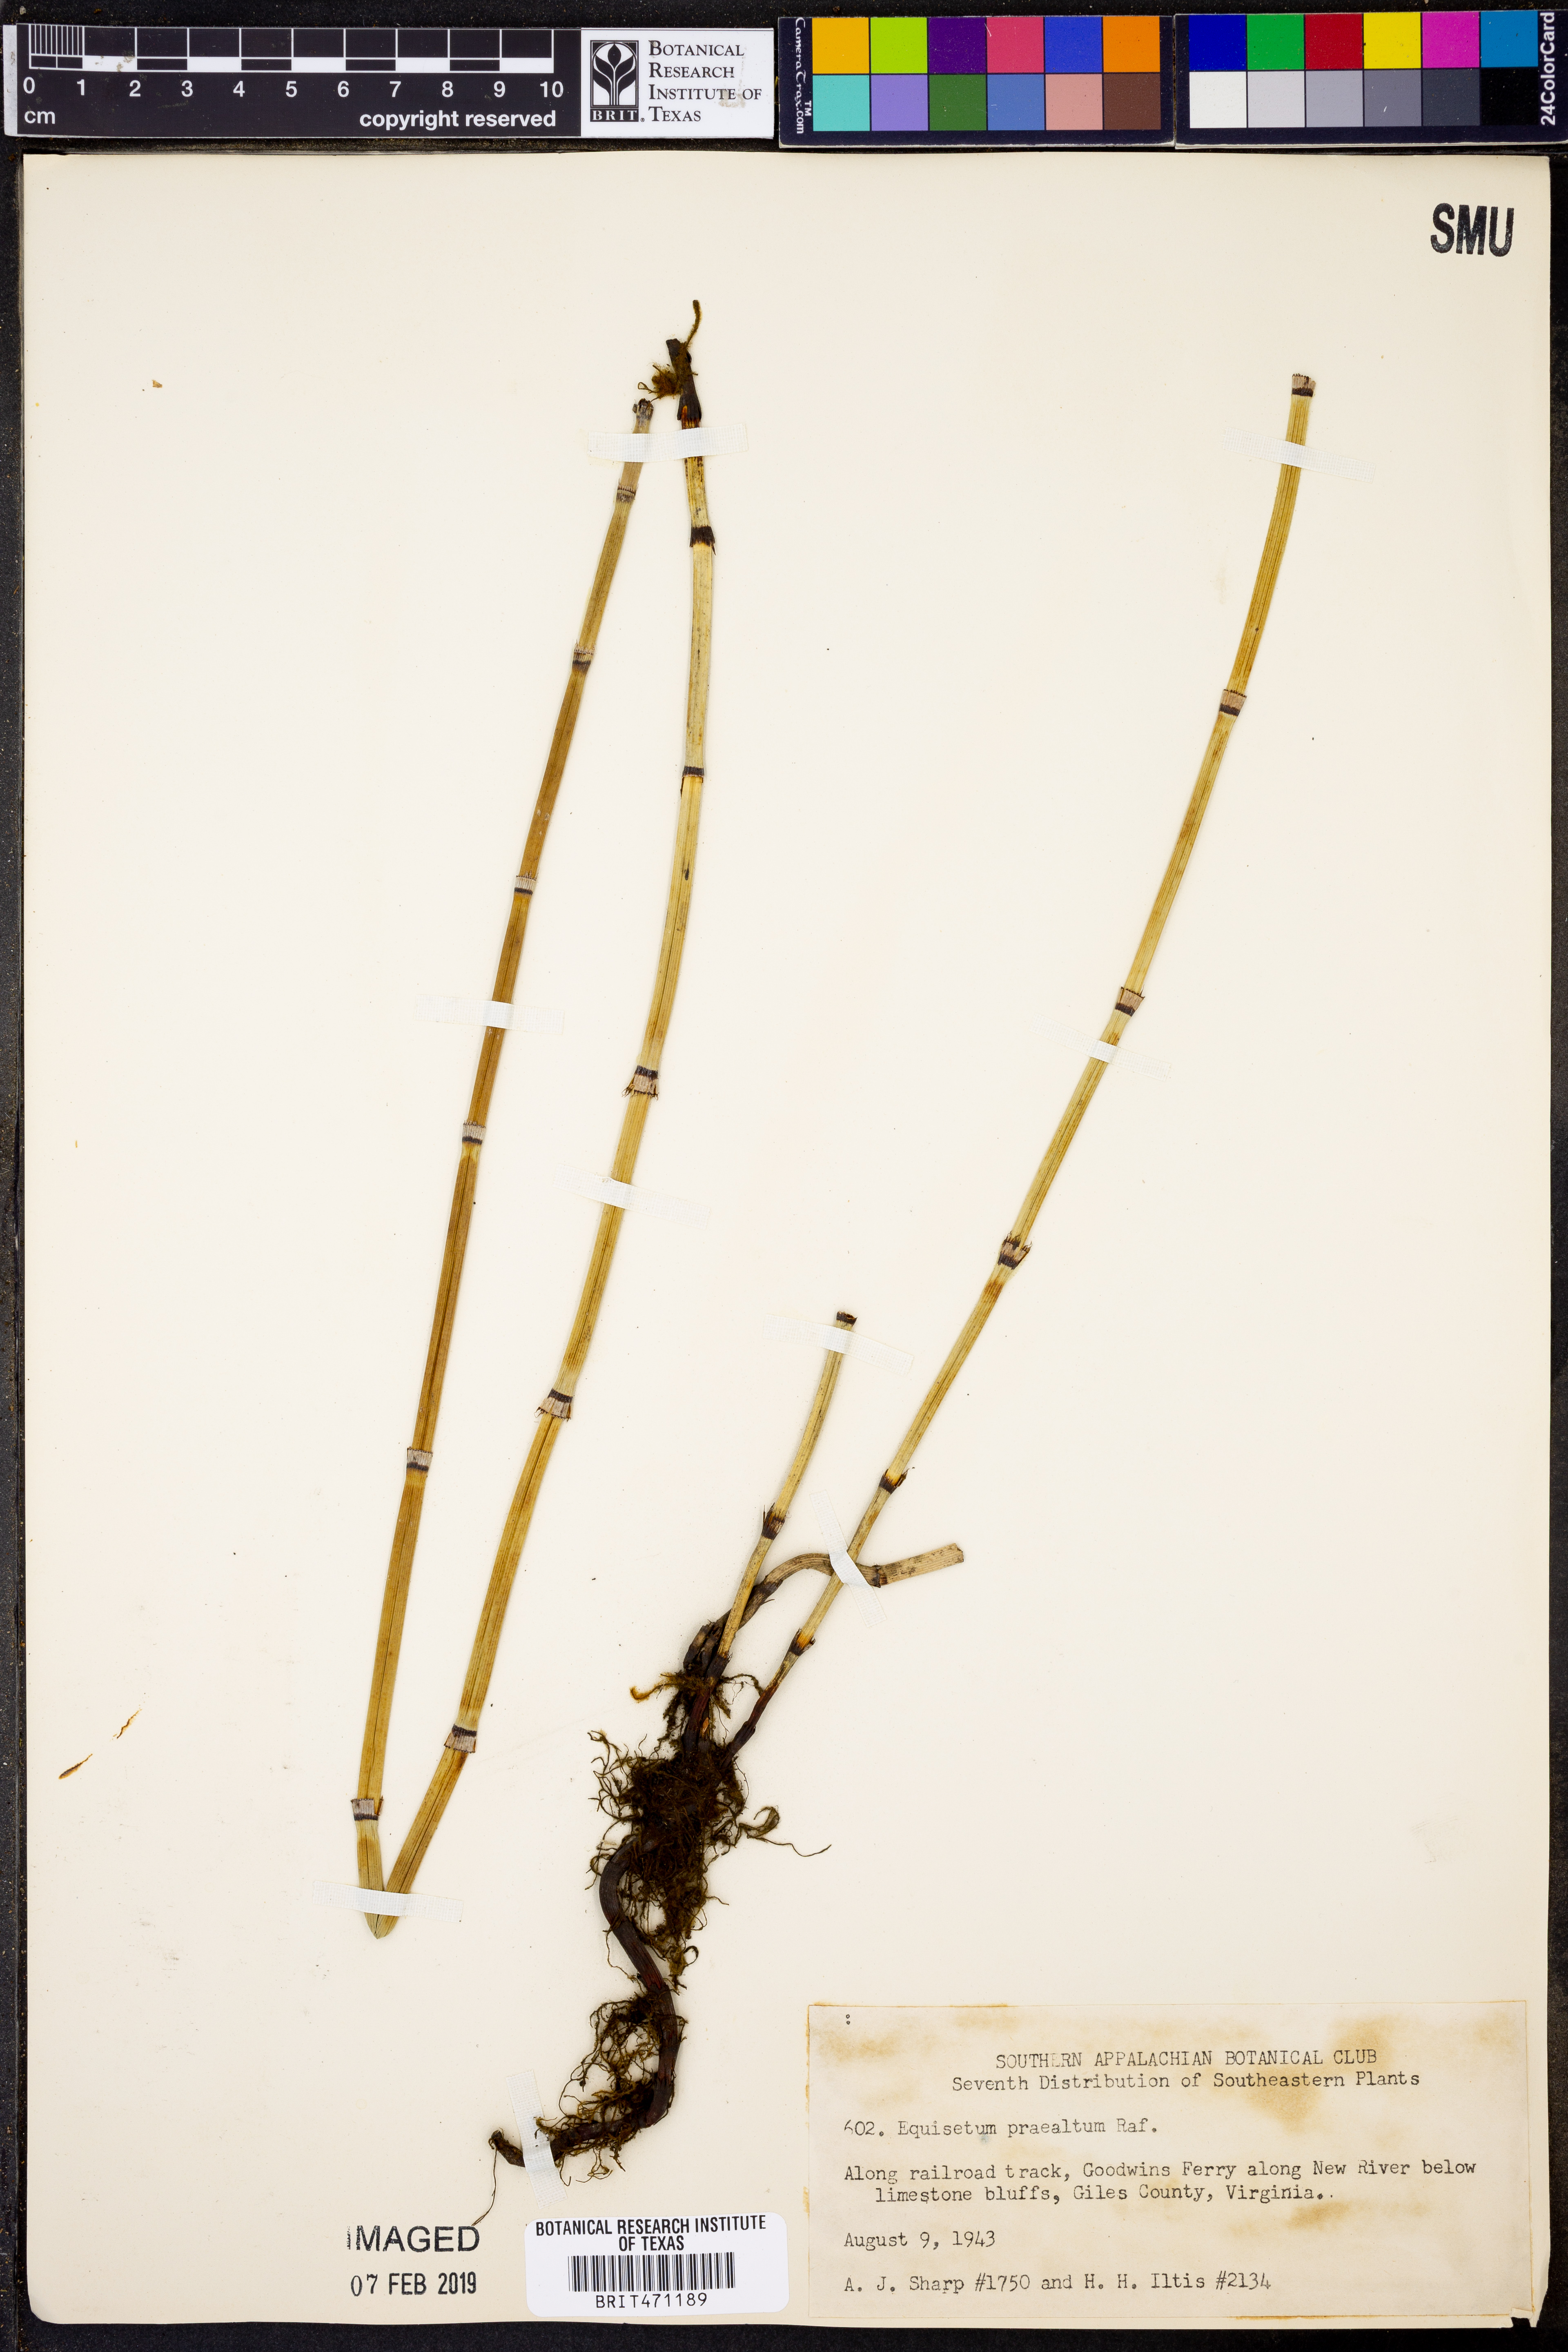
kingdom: Plantae
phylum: Tracheophyta
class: Polypodiopsida
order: Equisetales
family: Equisetaceae
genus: Equisetum
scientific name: Equisetum praealtum
